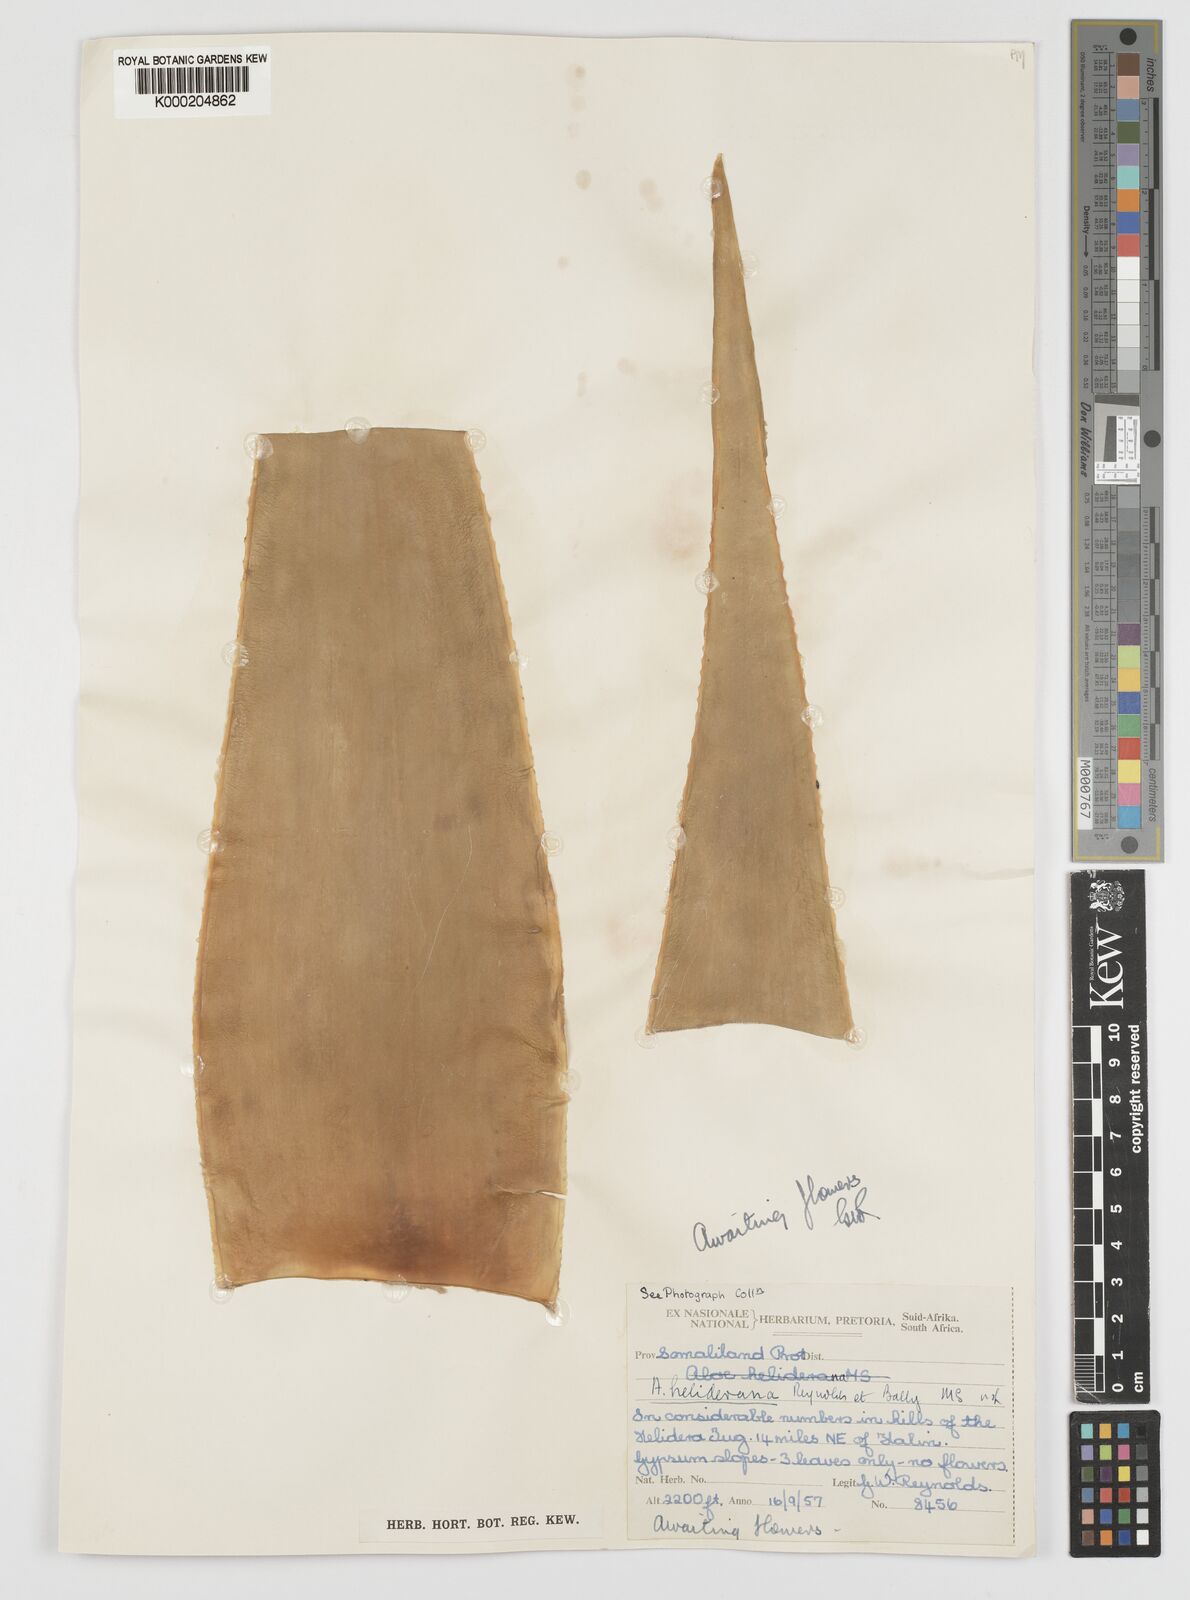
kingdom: Plantae
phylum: Tracheophyta
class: Liliopsida
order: Asparagales
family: Asphodelaceae
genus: Aloe
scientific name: Aloe heliderana
